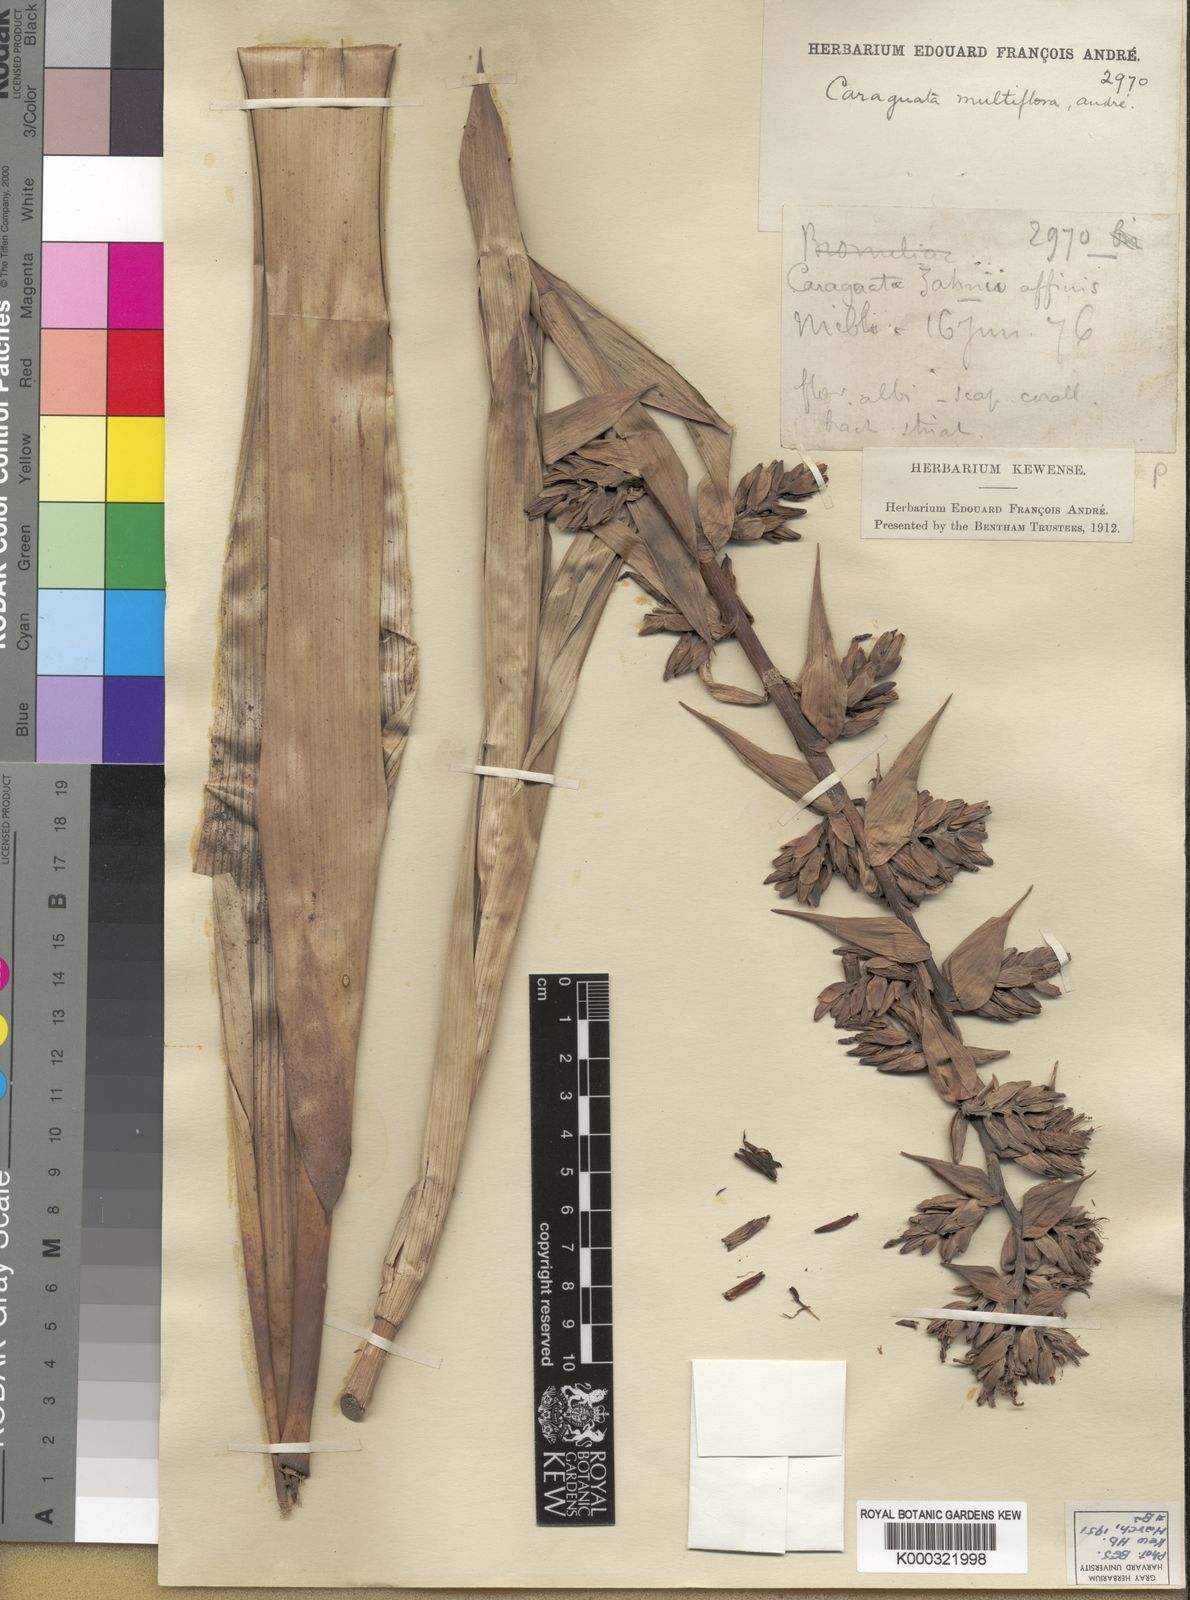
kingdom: Plantae
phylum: Tracheophyta
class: Liliopsida
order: Poales
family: Bromeliaceae
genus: Guzmania
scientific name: Guzmania multiflora
